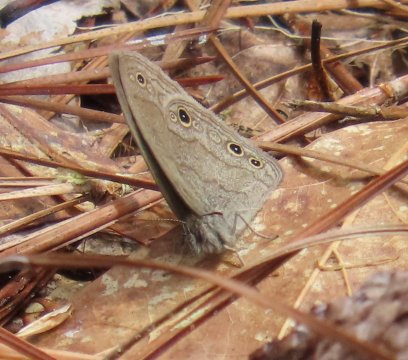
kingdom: Animalia
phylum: Arthropoda
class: Insecta
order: Lepidoptera
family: Nymphalidae
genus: Hermeuptychia
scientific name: Hermeuptychia hermes
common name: Carolina Satyr
